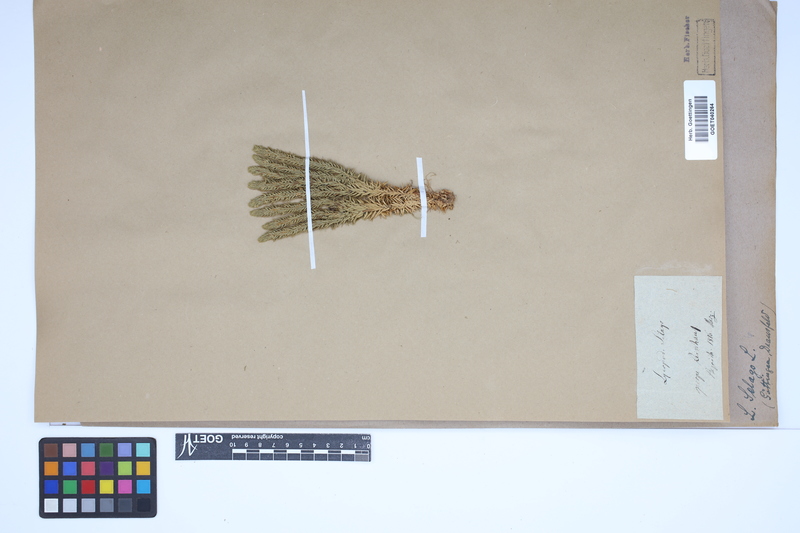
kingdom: Plantae
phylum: Tracheophyta
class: Lycopodiopsida
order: Lycopodiales
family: Lycopodiaceae
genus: Huperzia
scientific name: Huperzia selago
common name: Northern firmoss
